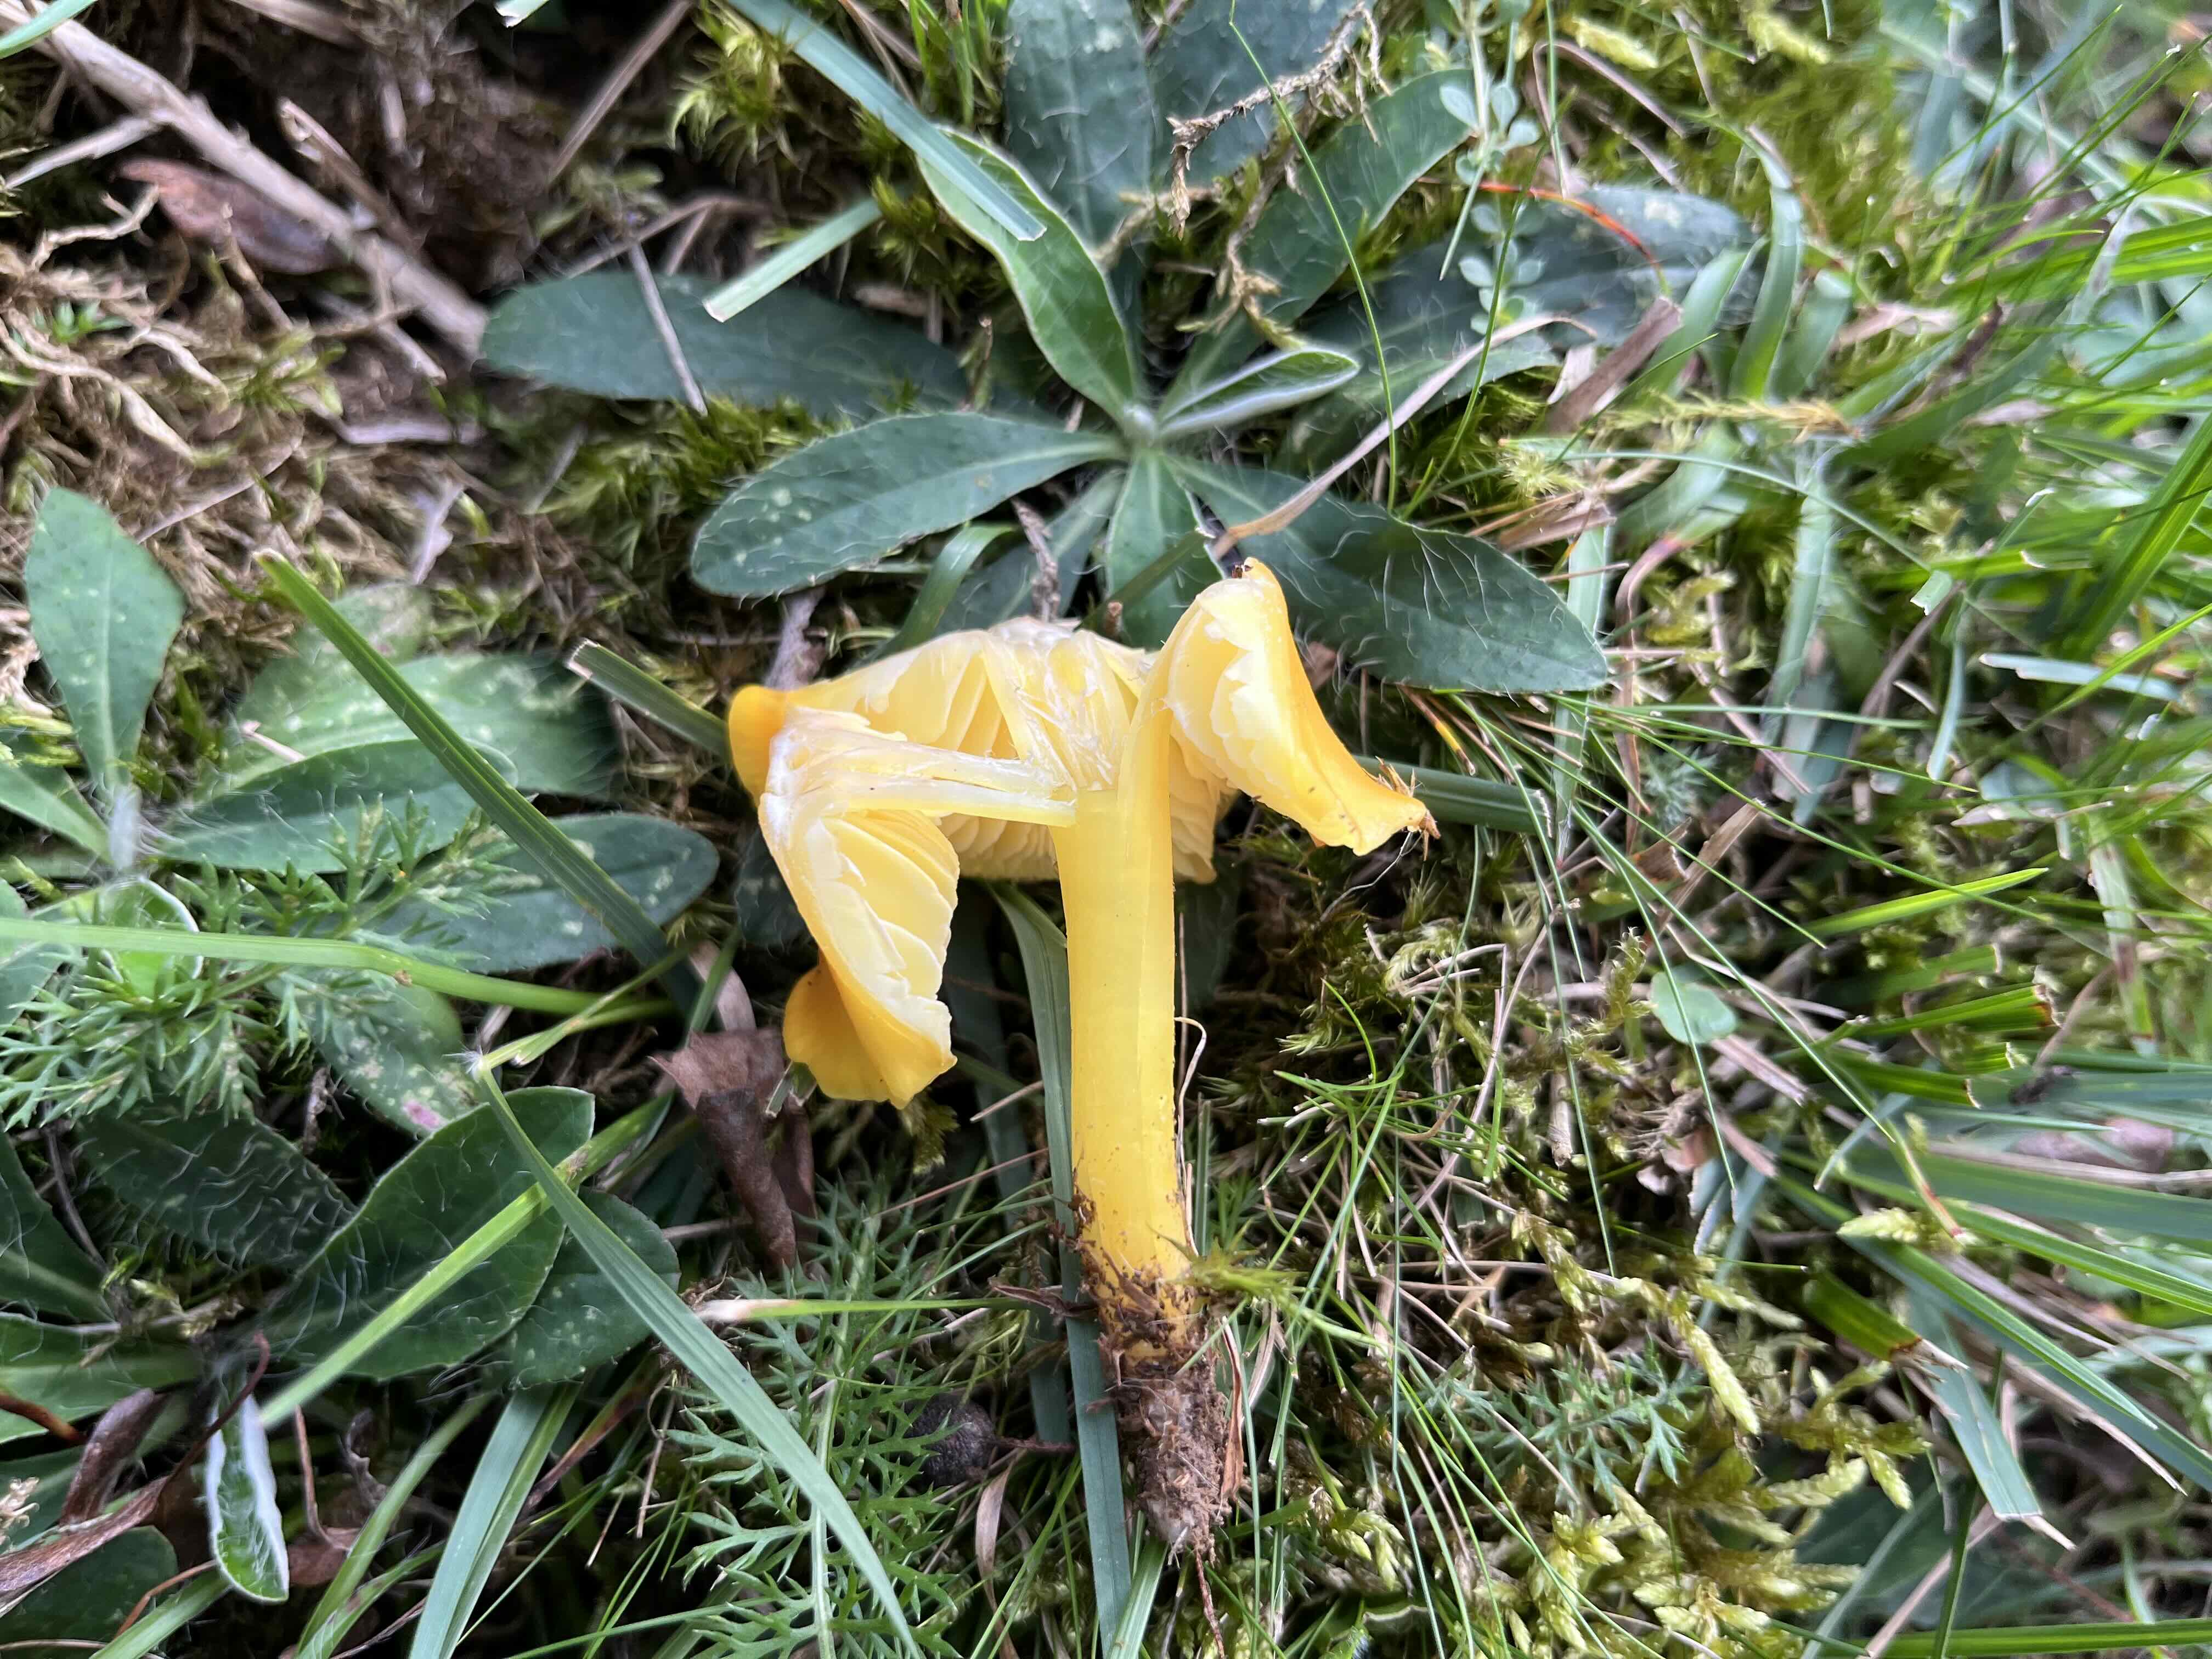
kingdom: Fungi
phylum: Basidiomycota
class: Agaricomycetes
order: Agaricales
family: Hygrophoraceae
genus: Hygrocybe
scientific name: Hygrocybe chlorophana
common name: gul vokshat
